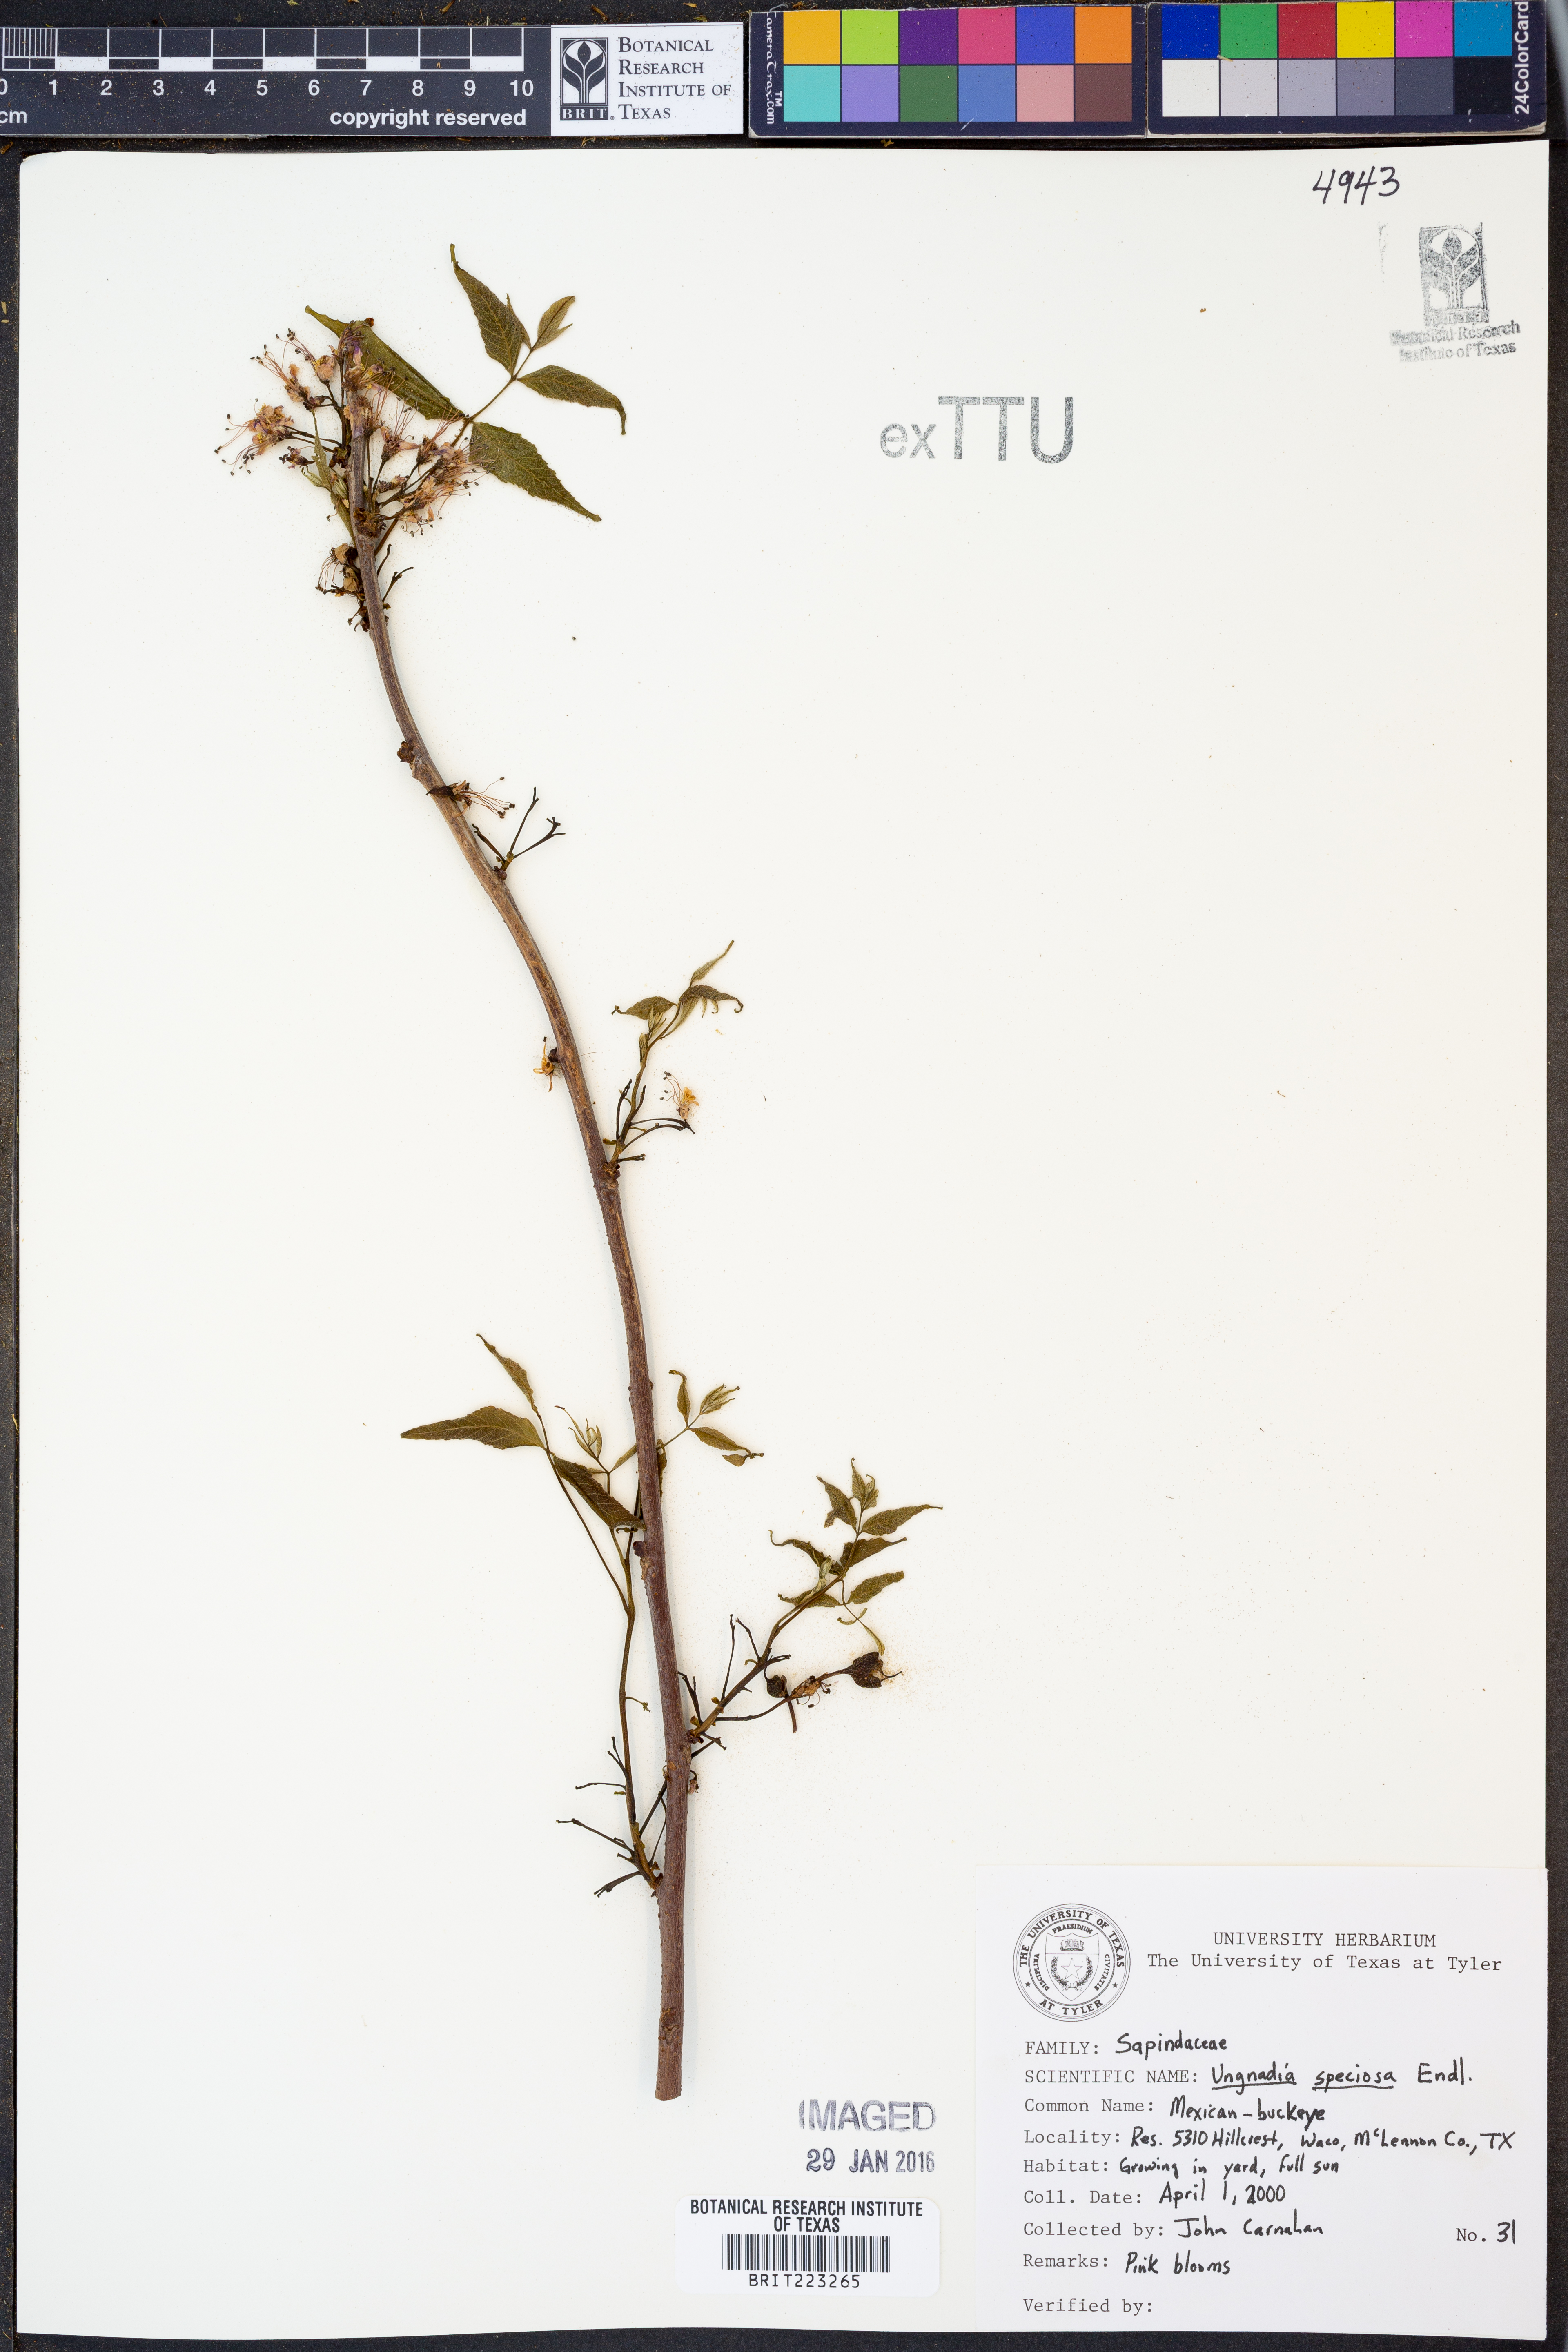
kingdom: Plantae
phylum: Tracheophyta
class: Magnoliopsida
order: Sapindales
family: Sapindaceae
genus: Ungnadia
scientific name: Ungnadia speciosa
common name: Texas-buckeye
